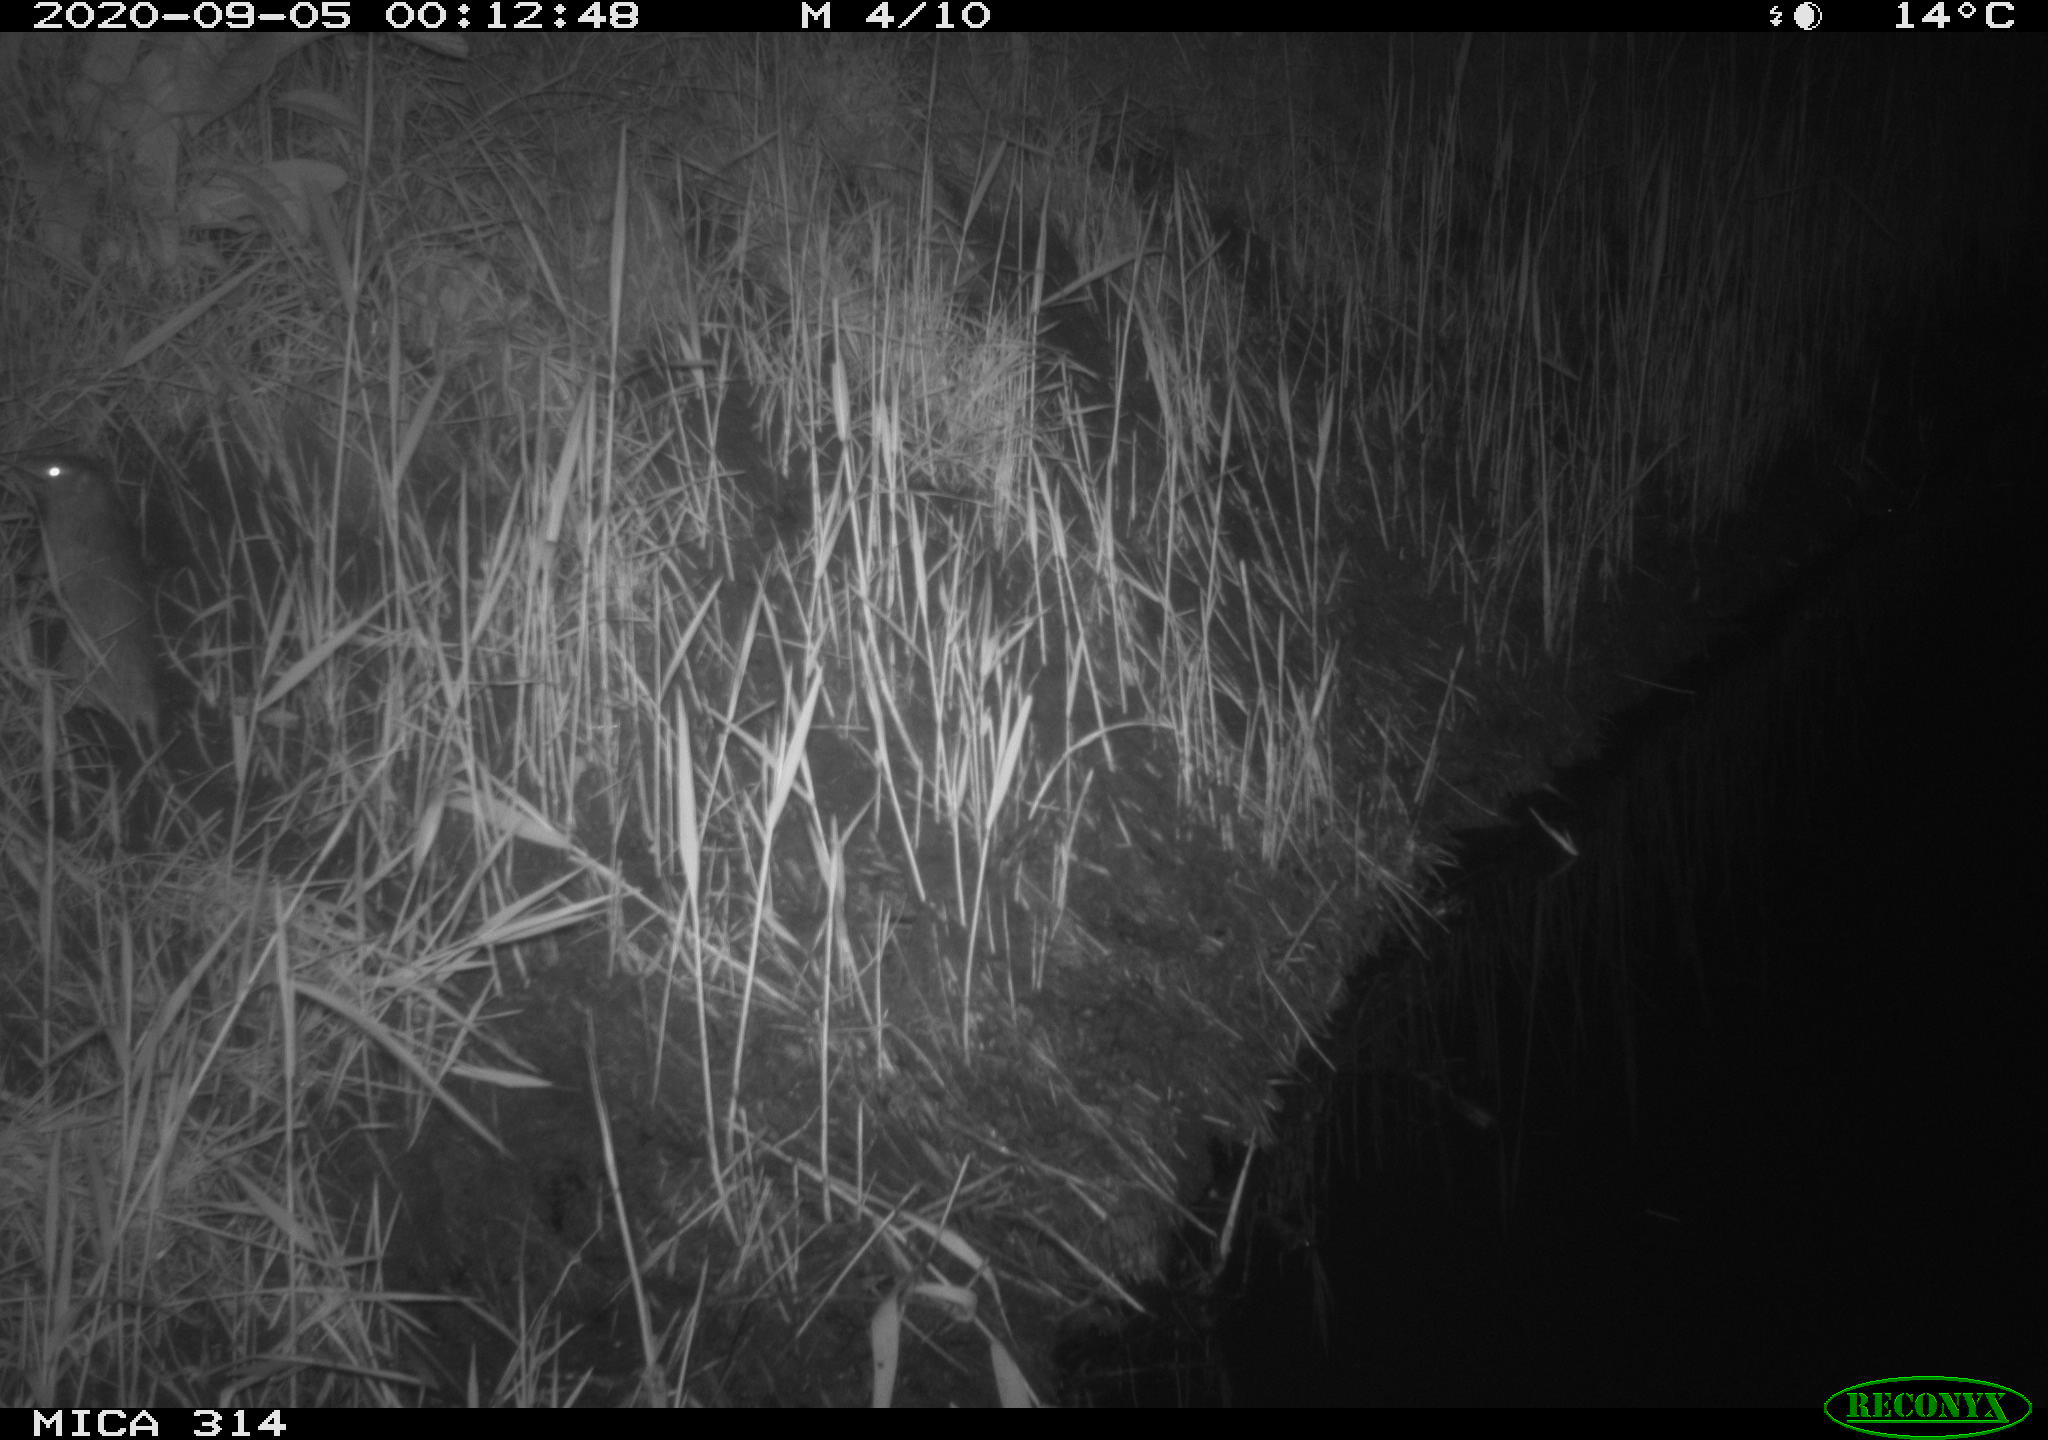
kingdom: Animalia
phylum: Chordata
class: Mammalia
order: Rodentia
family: Muridae
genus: Rattus
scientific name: Rattus norvegicus
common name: Brown rat
